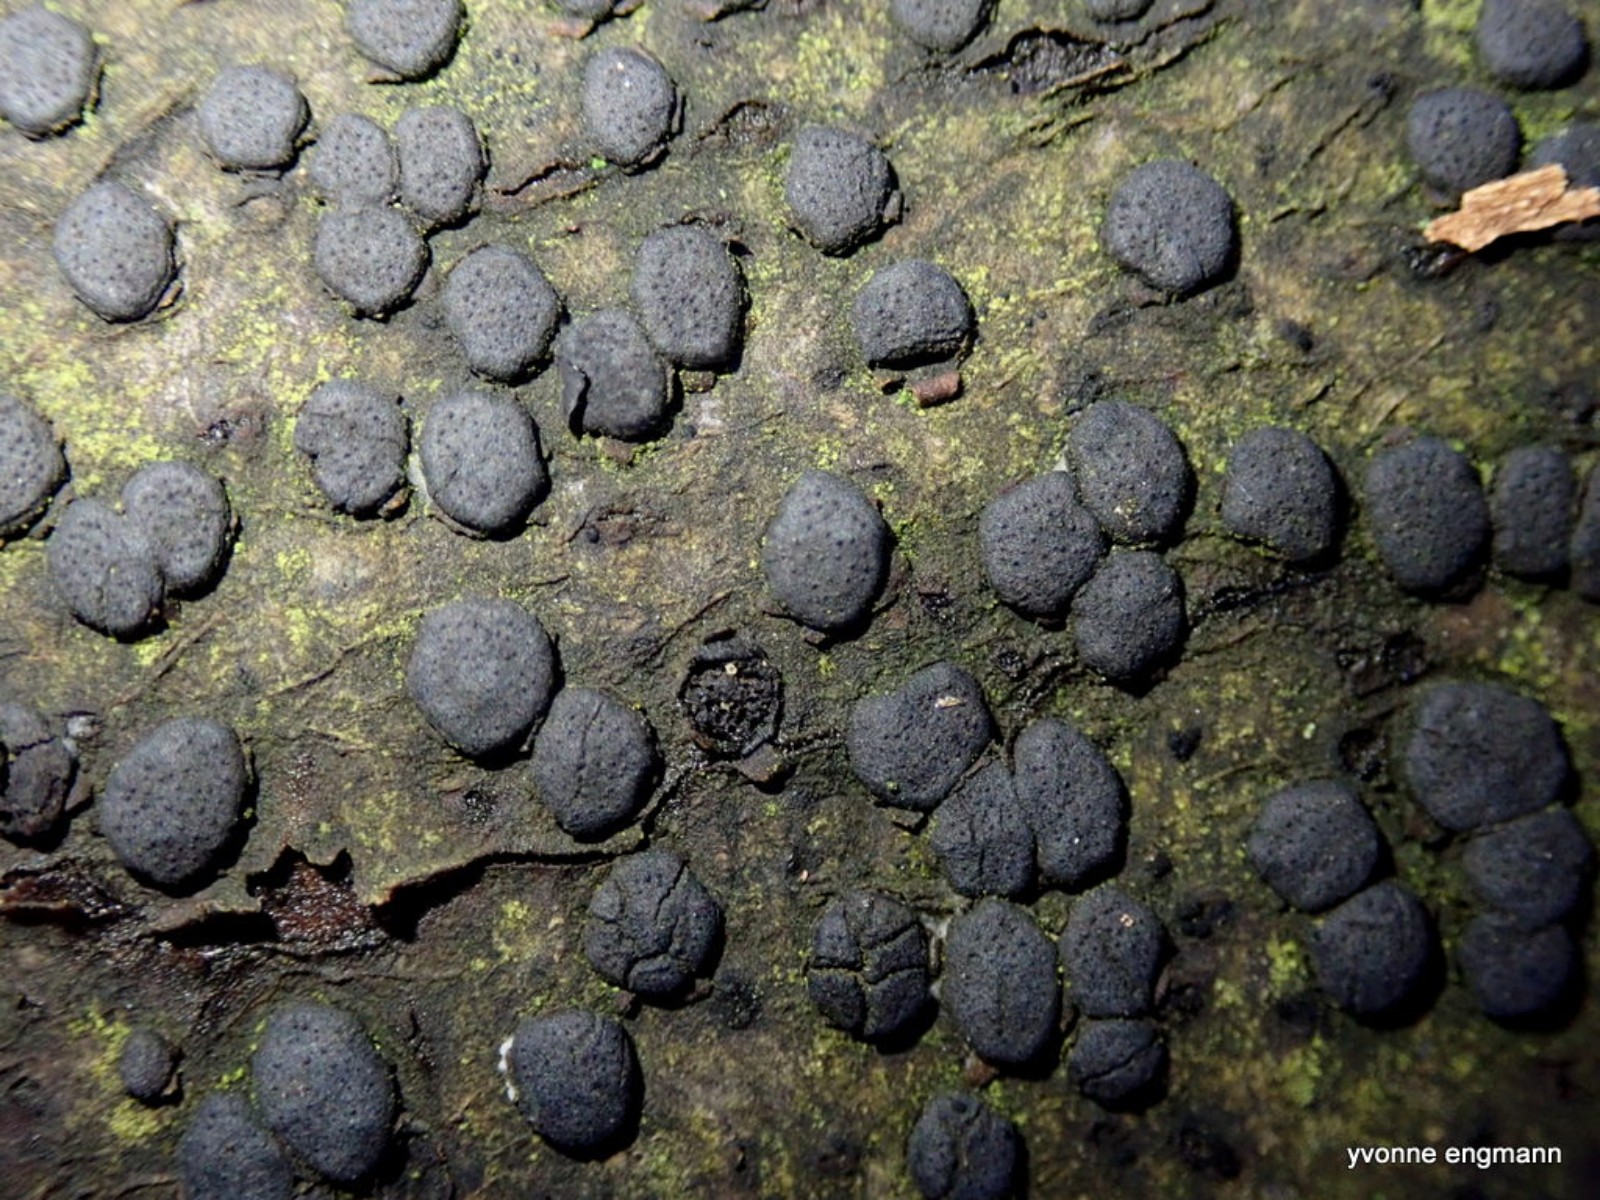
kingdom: Fungi
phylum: Ascomycota
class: Sordariomycetes
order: Xylariales
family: Diatrypaceae
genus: Diatrype
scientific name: Diatrype disciformis
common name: kant-kulskorpe
